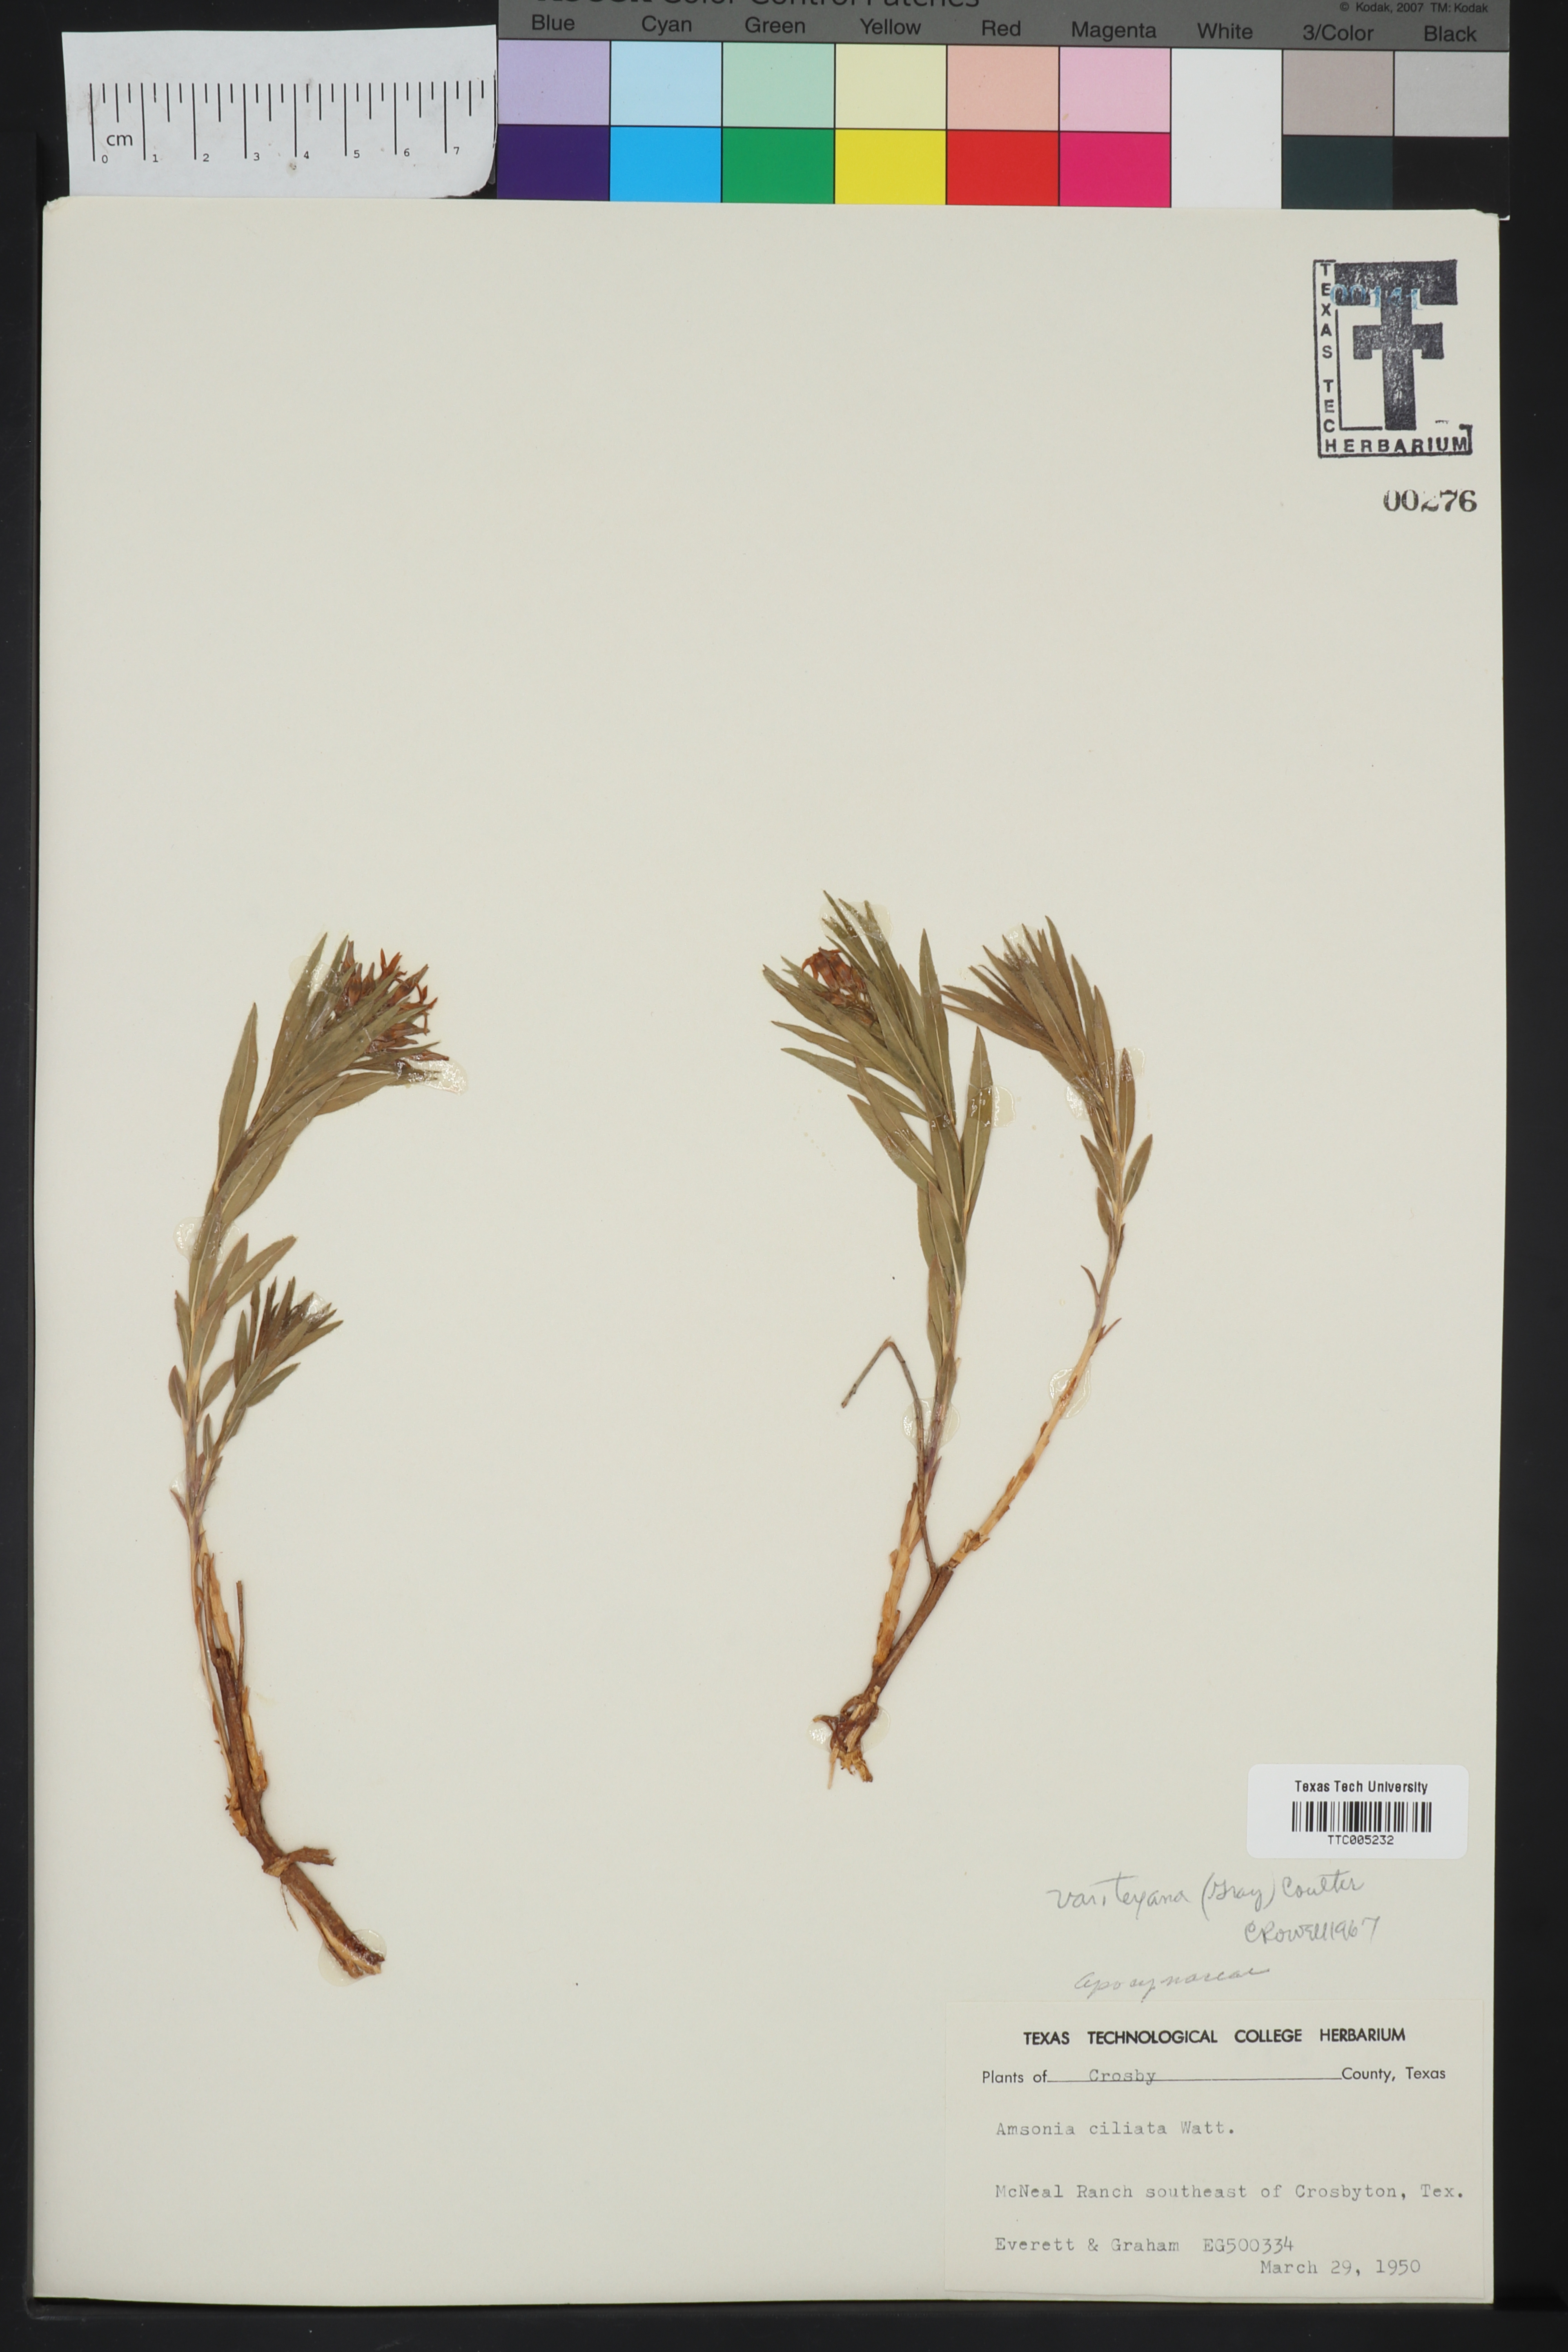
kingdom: Plantae
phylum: Tracheophyta
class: Magnoliopsida
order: Gentianales
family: Apocynaceae
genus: Amsonia
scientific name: Amsonia ciliata
